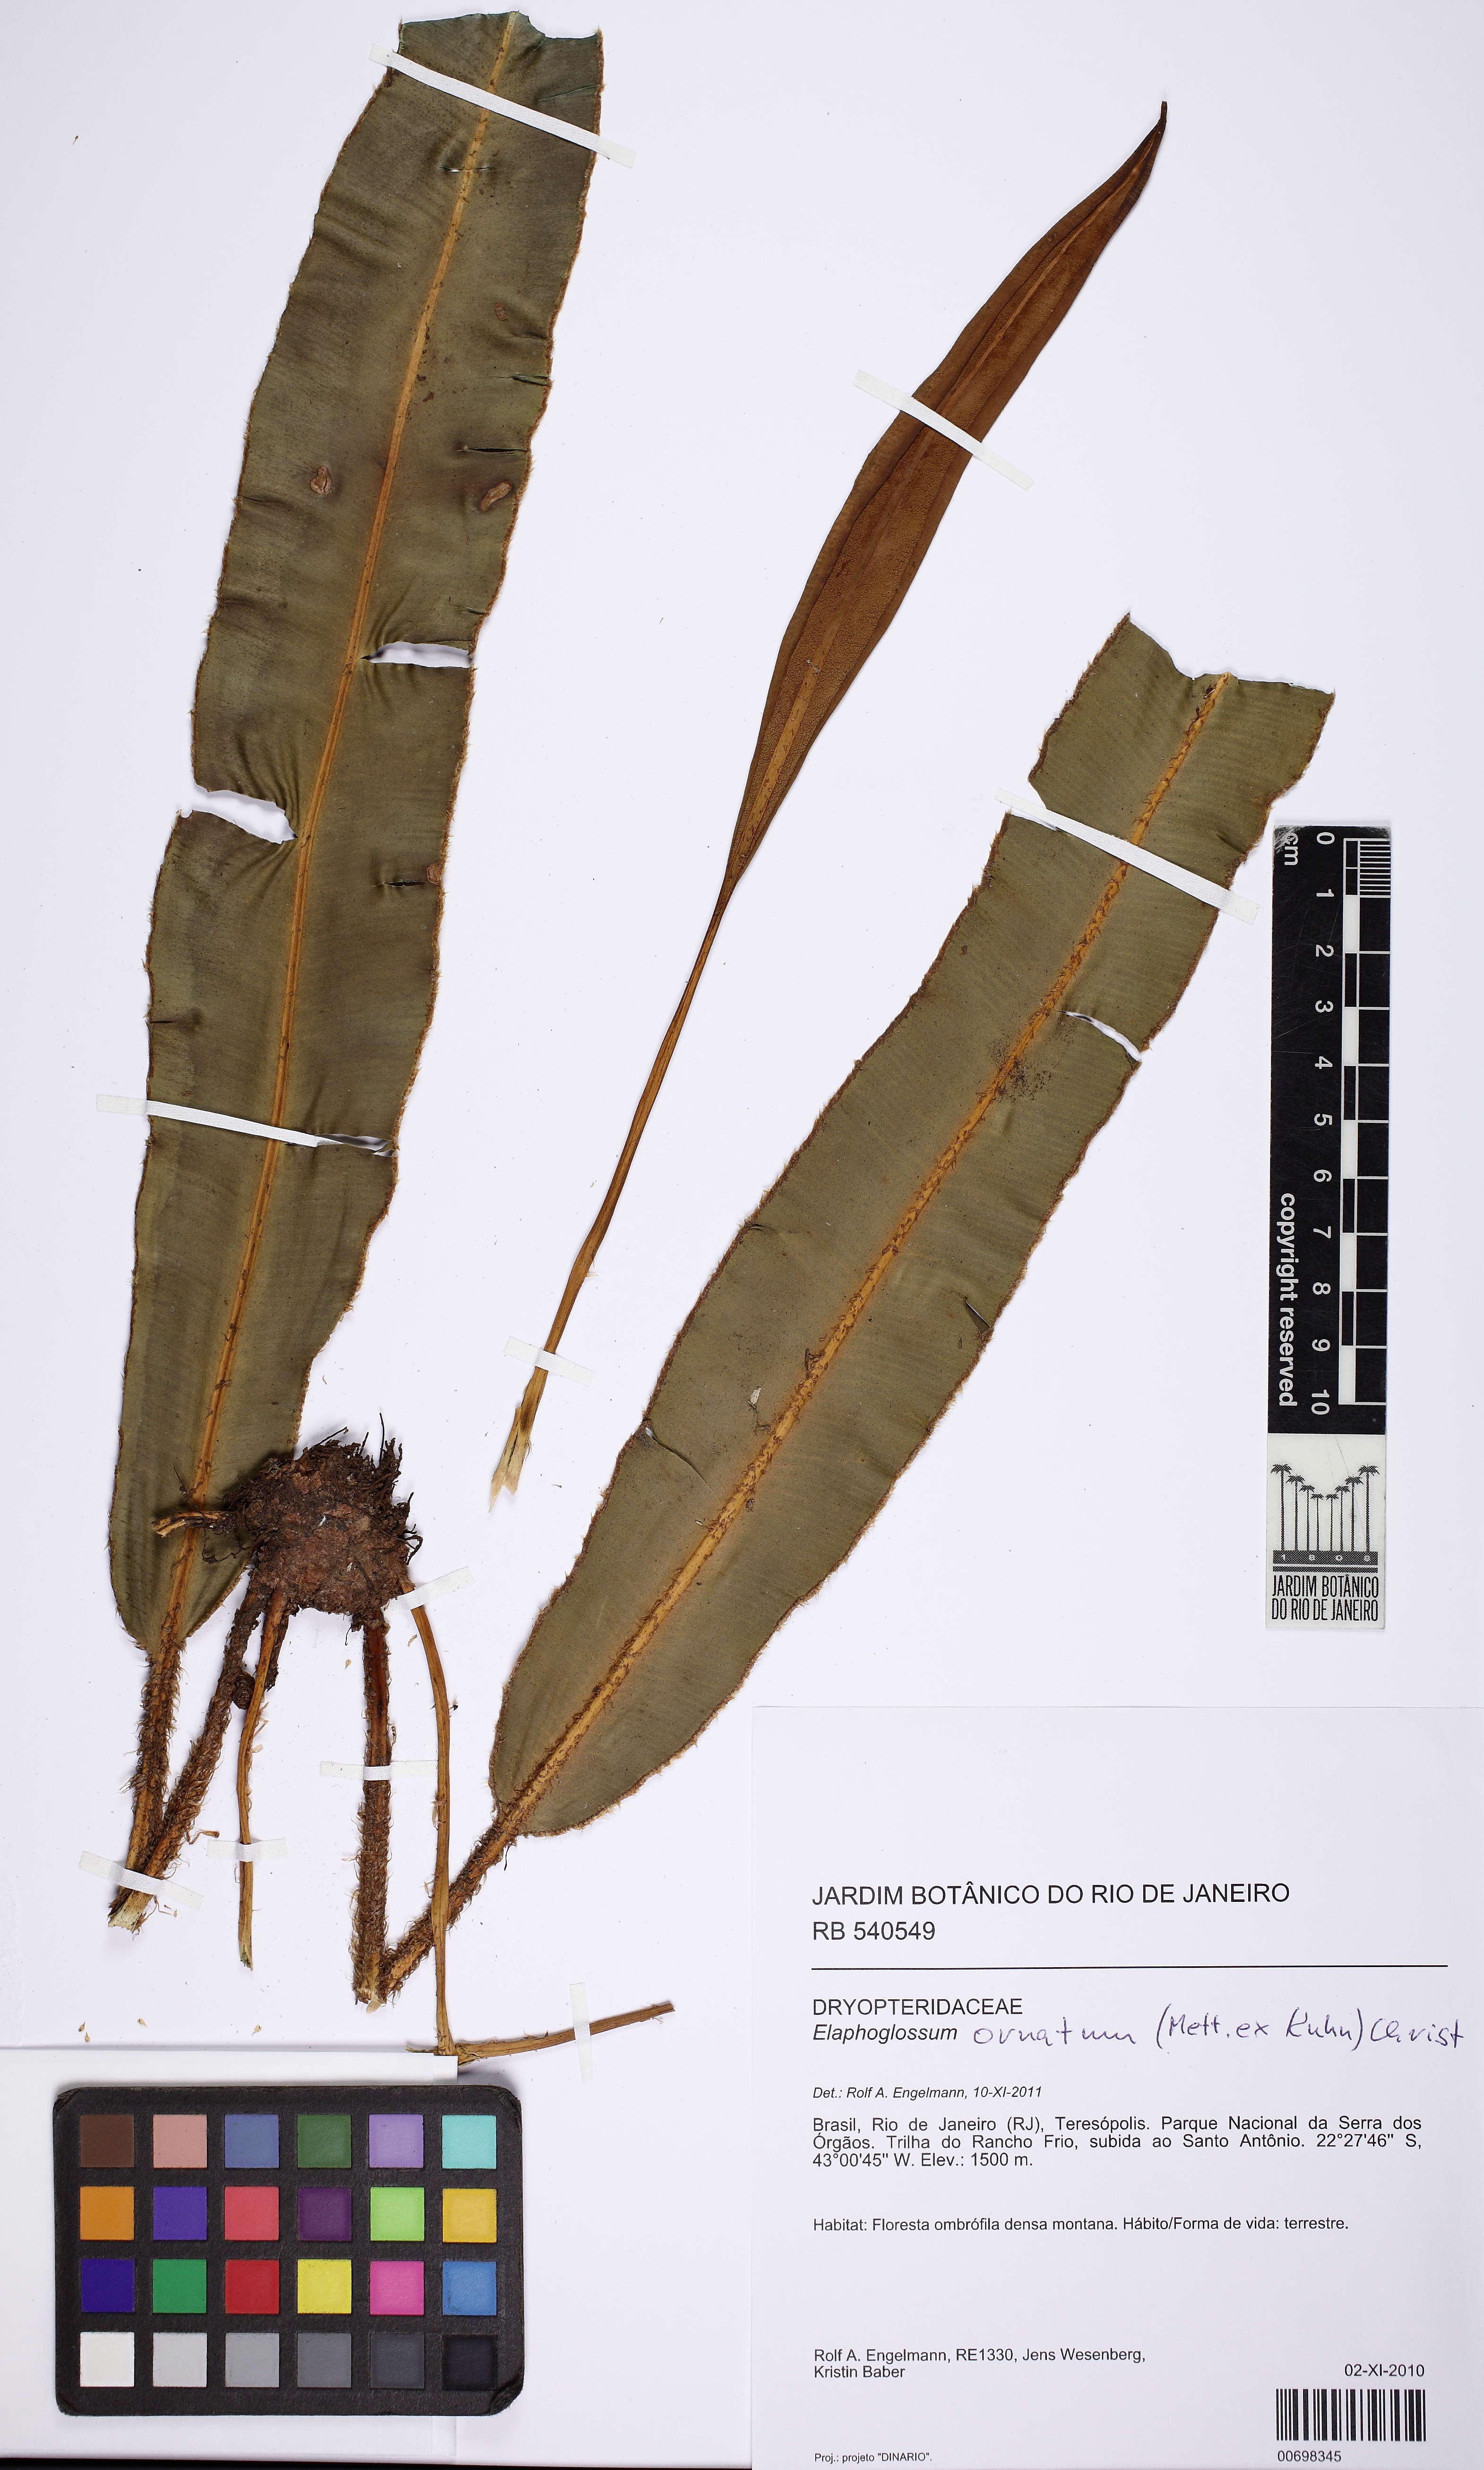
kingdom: Plantae
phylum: Tracheophyta
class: Polypodiopsida
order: Polypodiales
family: Dryopteridaceae
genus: Elaphoglossum
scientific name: Elaphoglossum glaziovii
